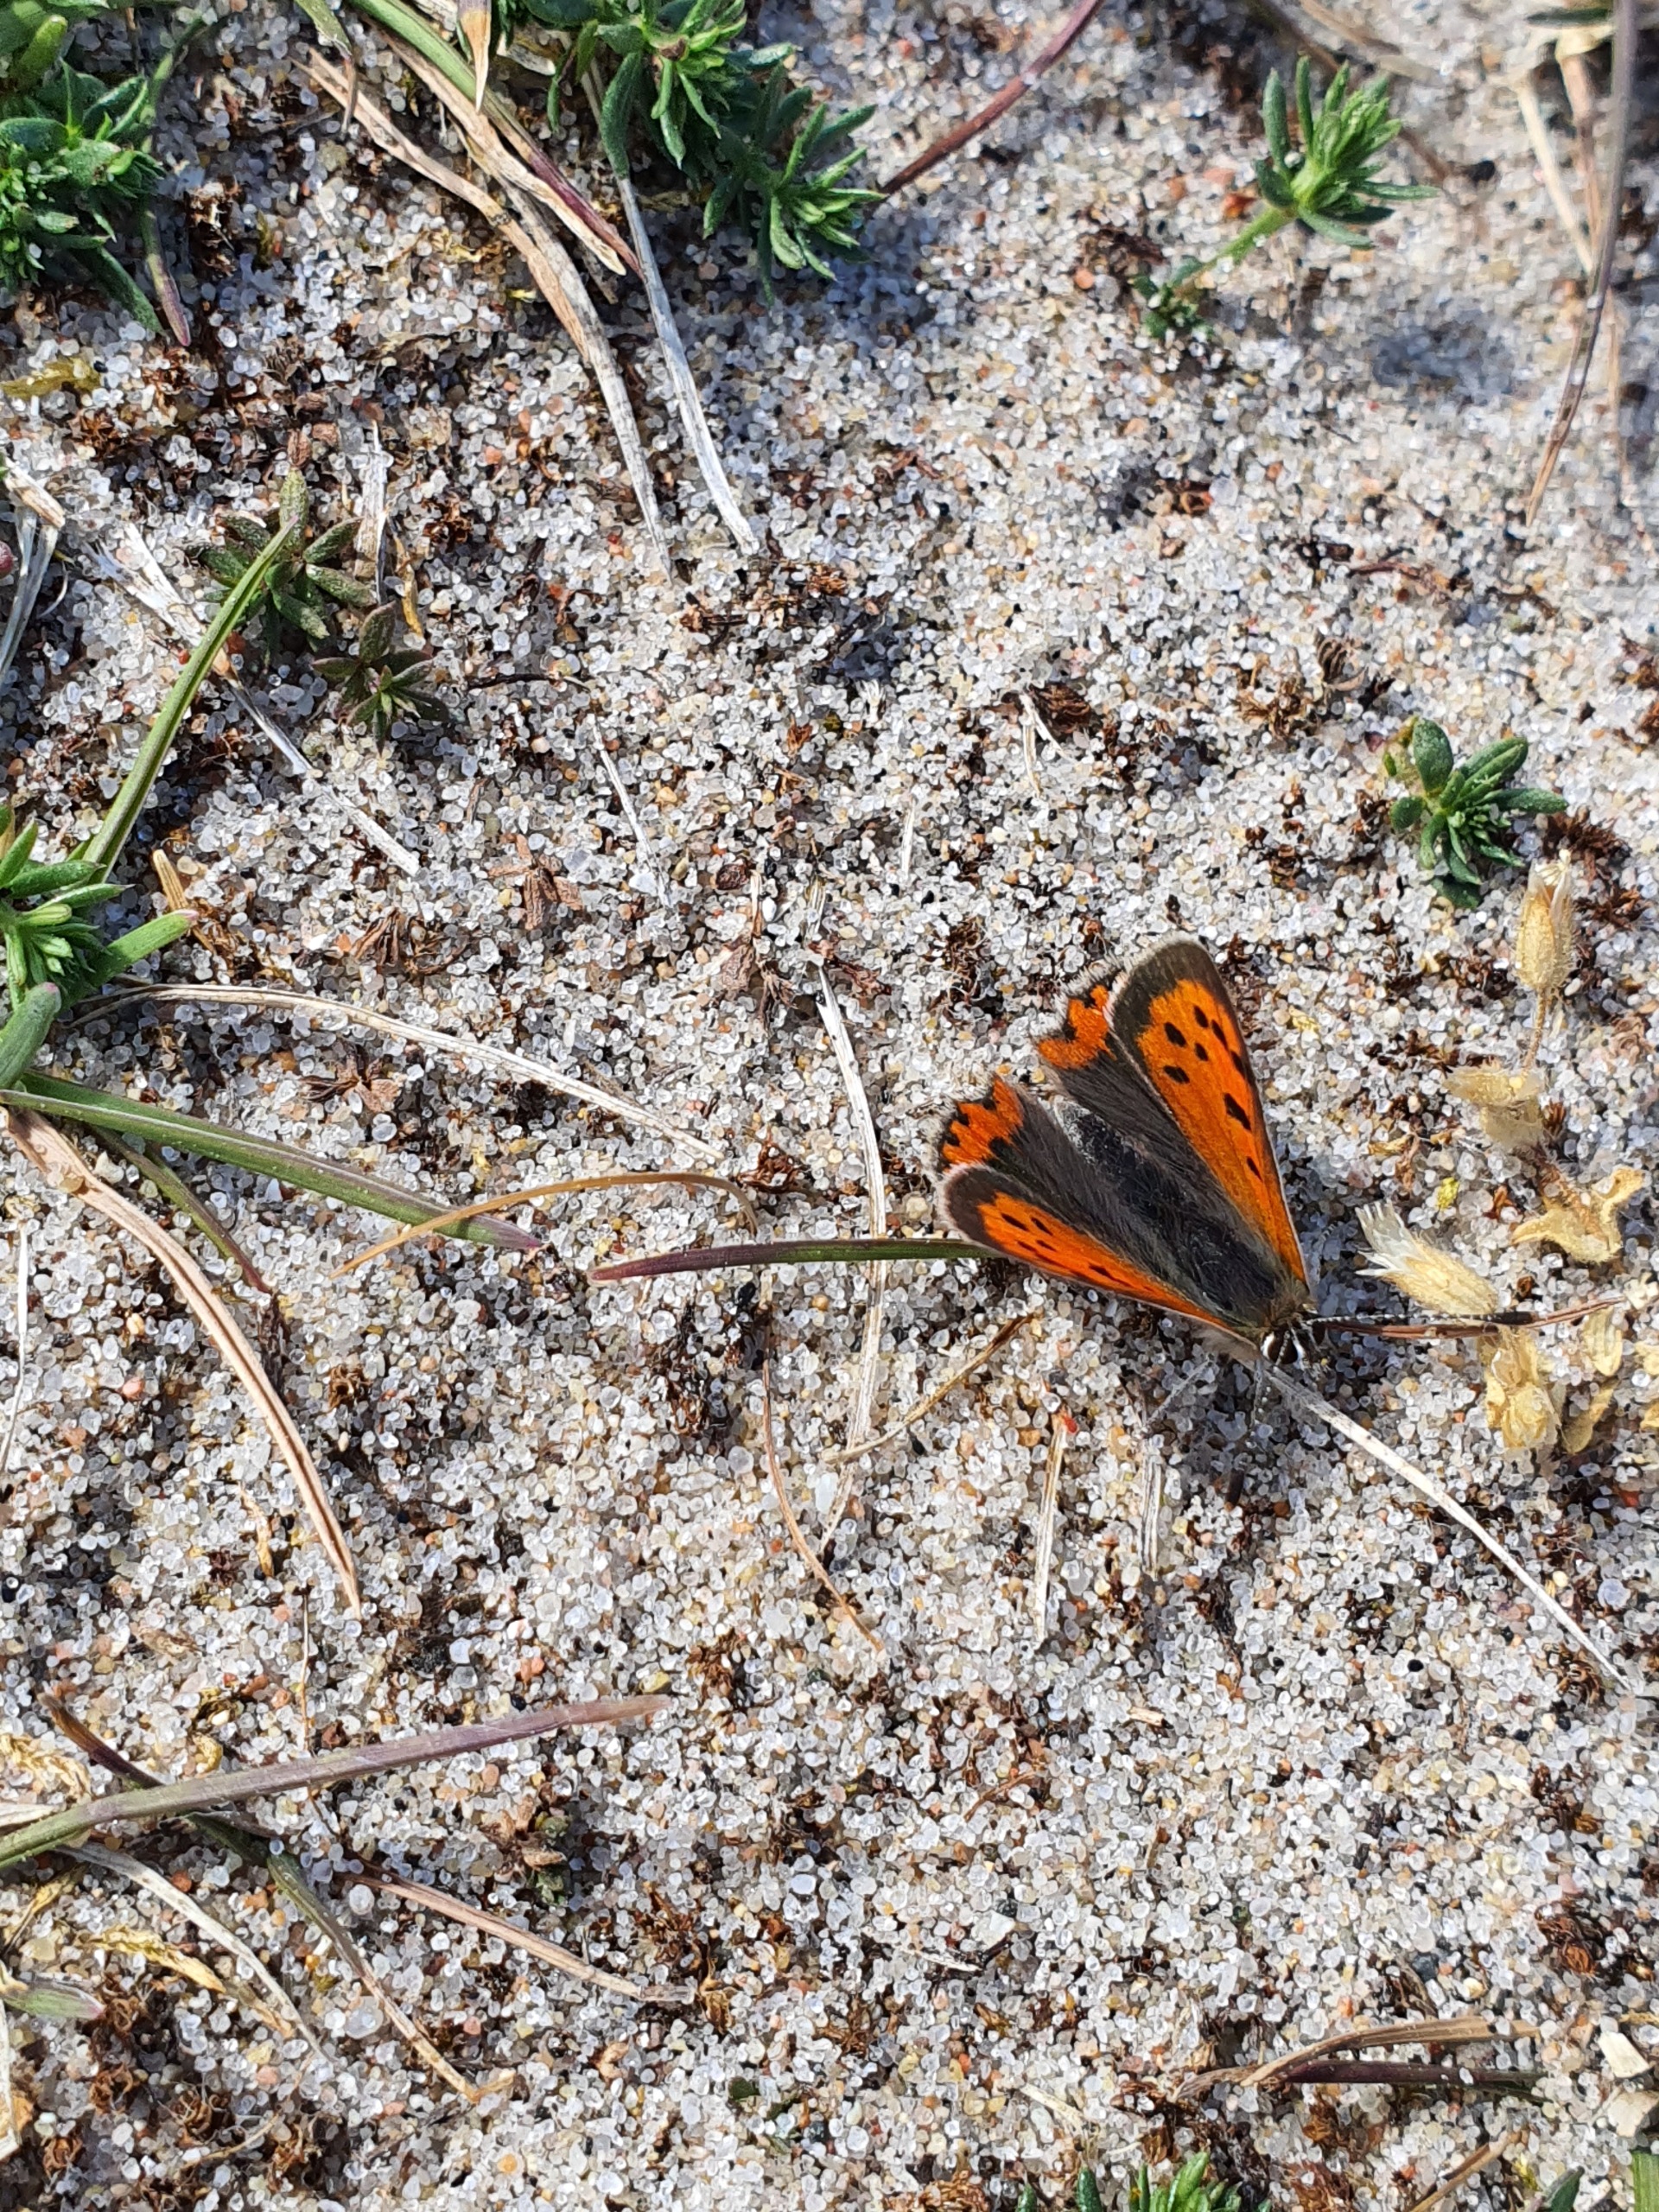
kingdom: Animalia
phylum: Arthropoda
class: Insecta
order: Lepidoptera
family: Lycaenidae
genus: Lycaena
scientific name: Lycaena phlaeas
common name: Lille ildfugl
